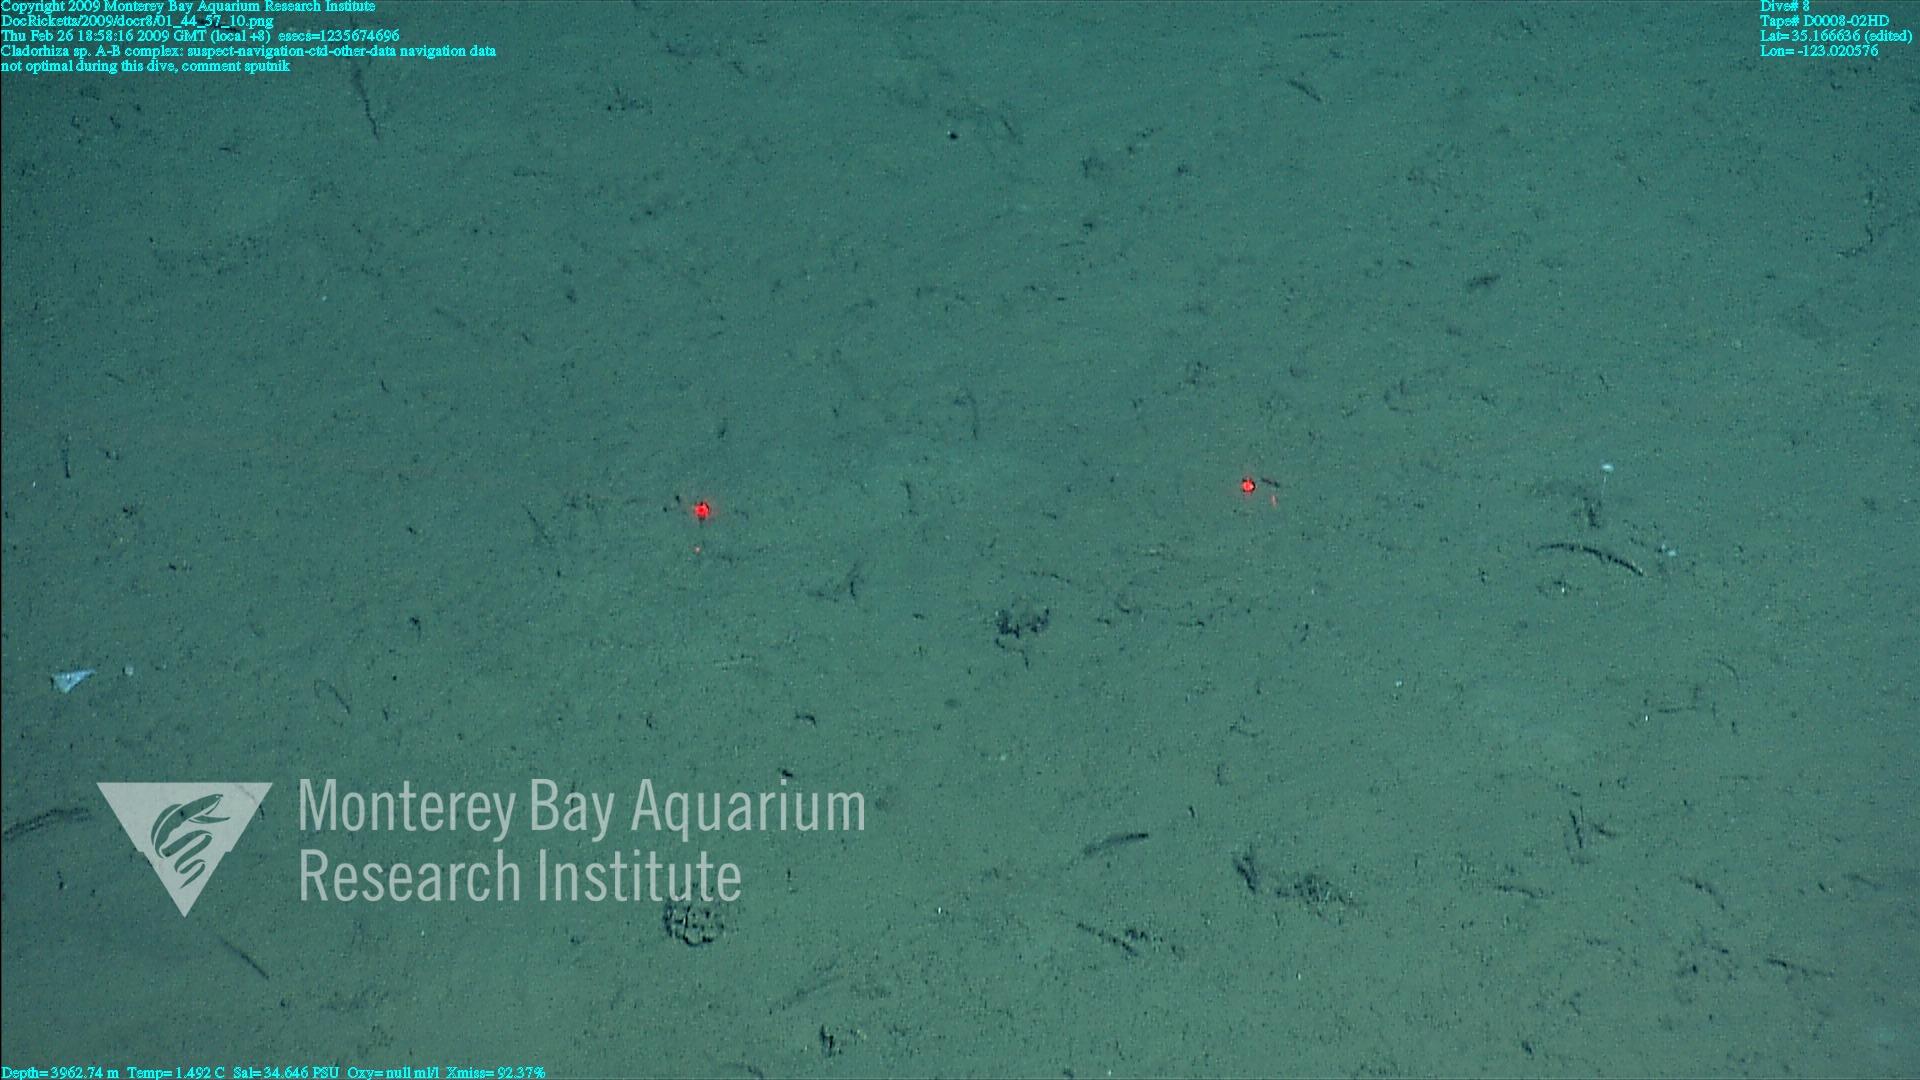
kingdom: Animalia
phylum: Porifera
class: Demospongiae
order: Poecilosclerida
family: Cladorhizidae
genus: Cladorhiza
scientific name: Cladorhiza
